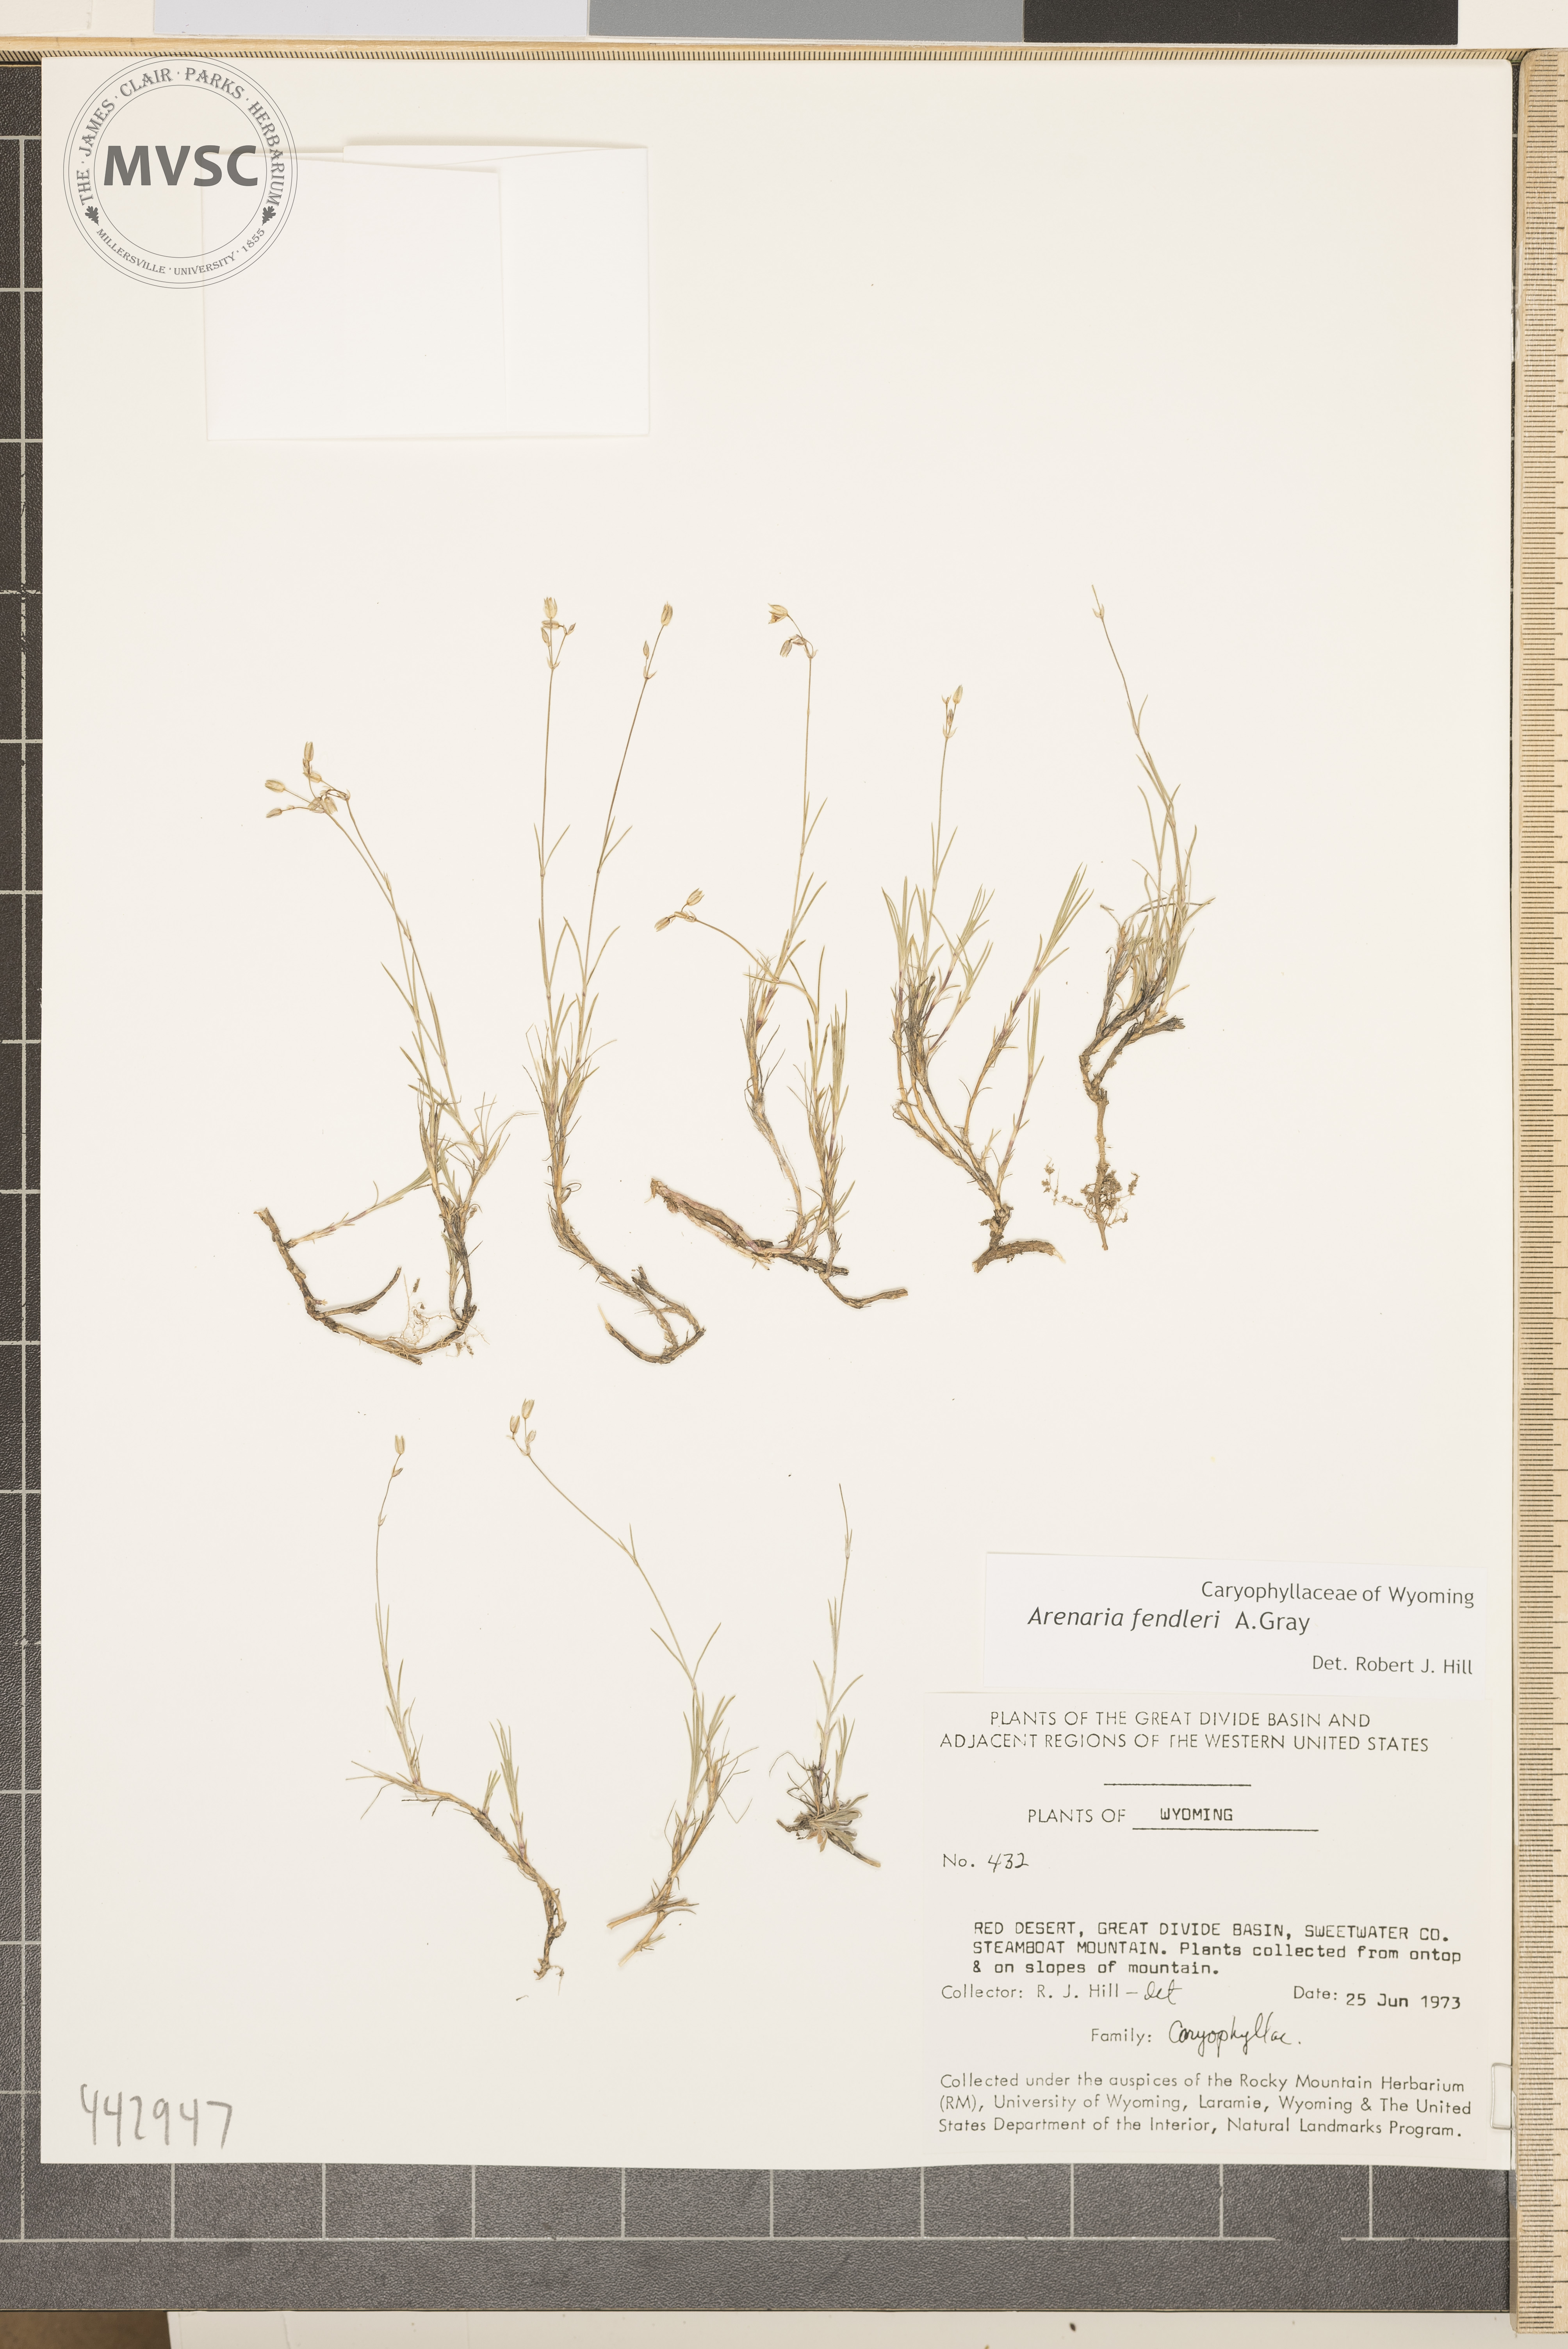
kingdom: Plantae
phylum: Tracheophyta
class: Magnoliopsida
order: Caryophyllales
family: Caryophyllaceae
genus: Eremogone
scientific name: Eremogone fendleri
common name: Fendler's sandwort
